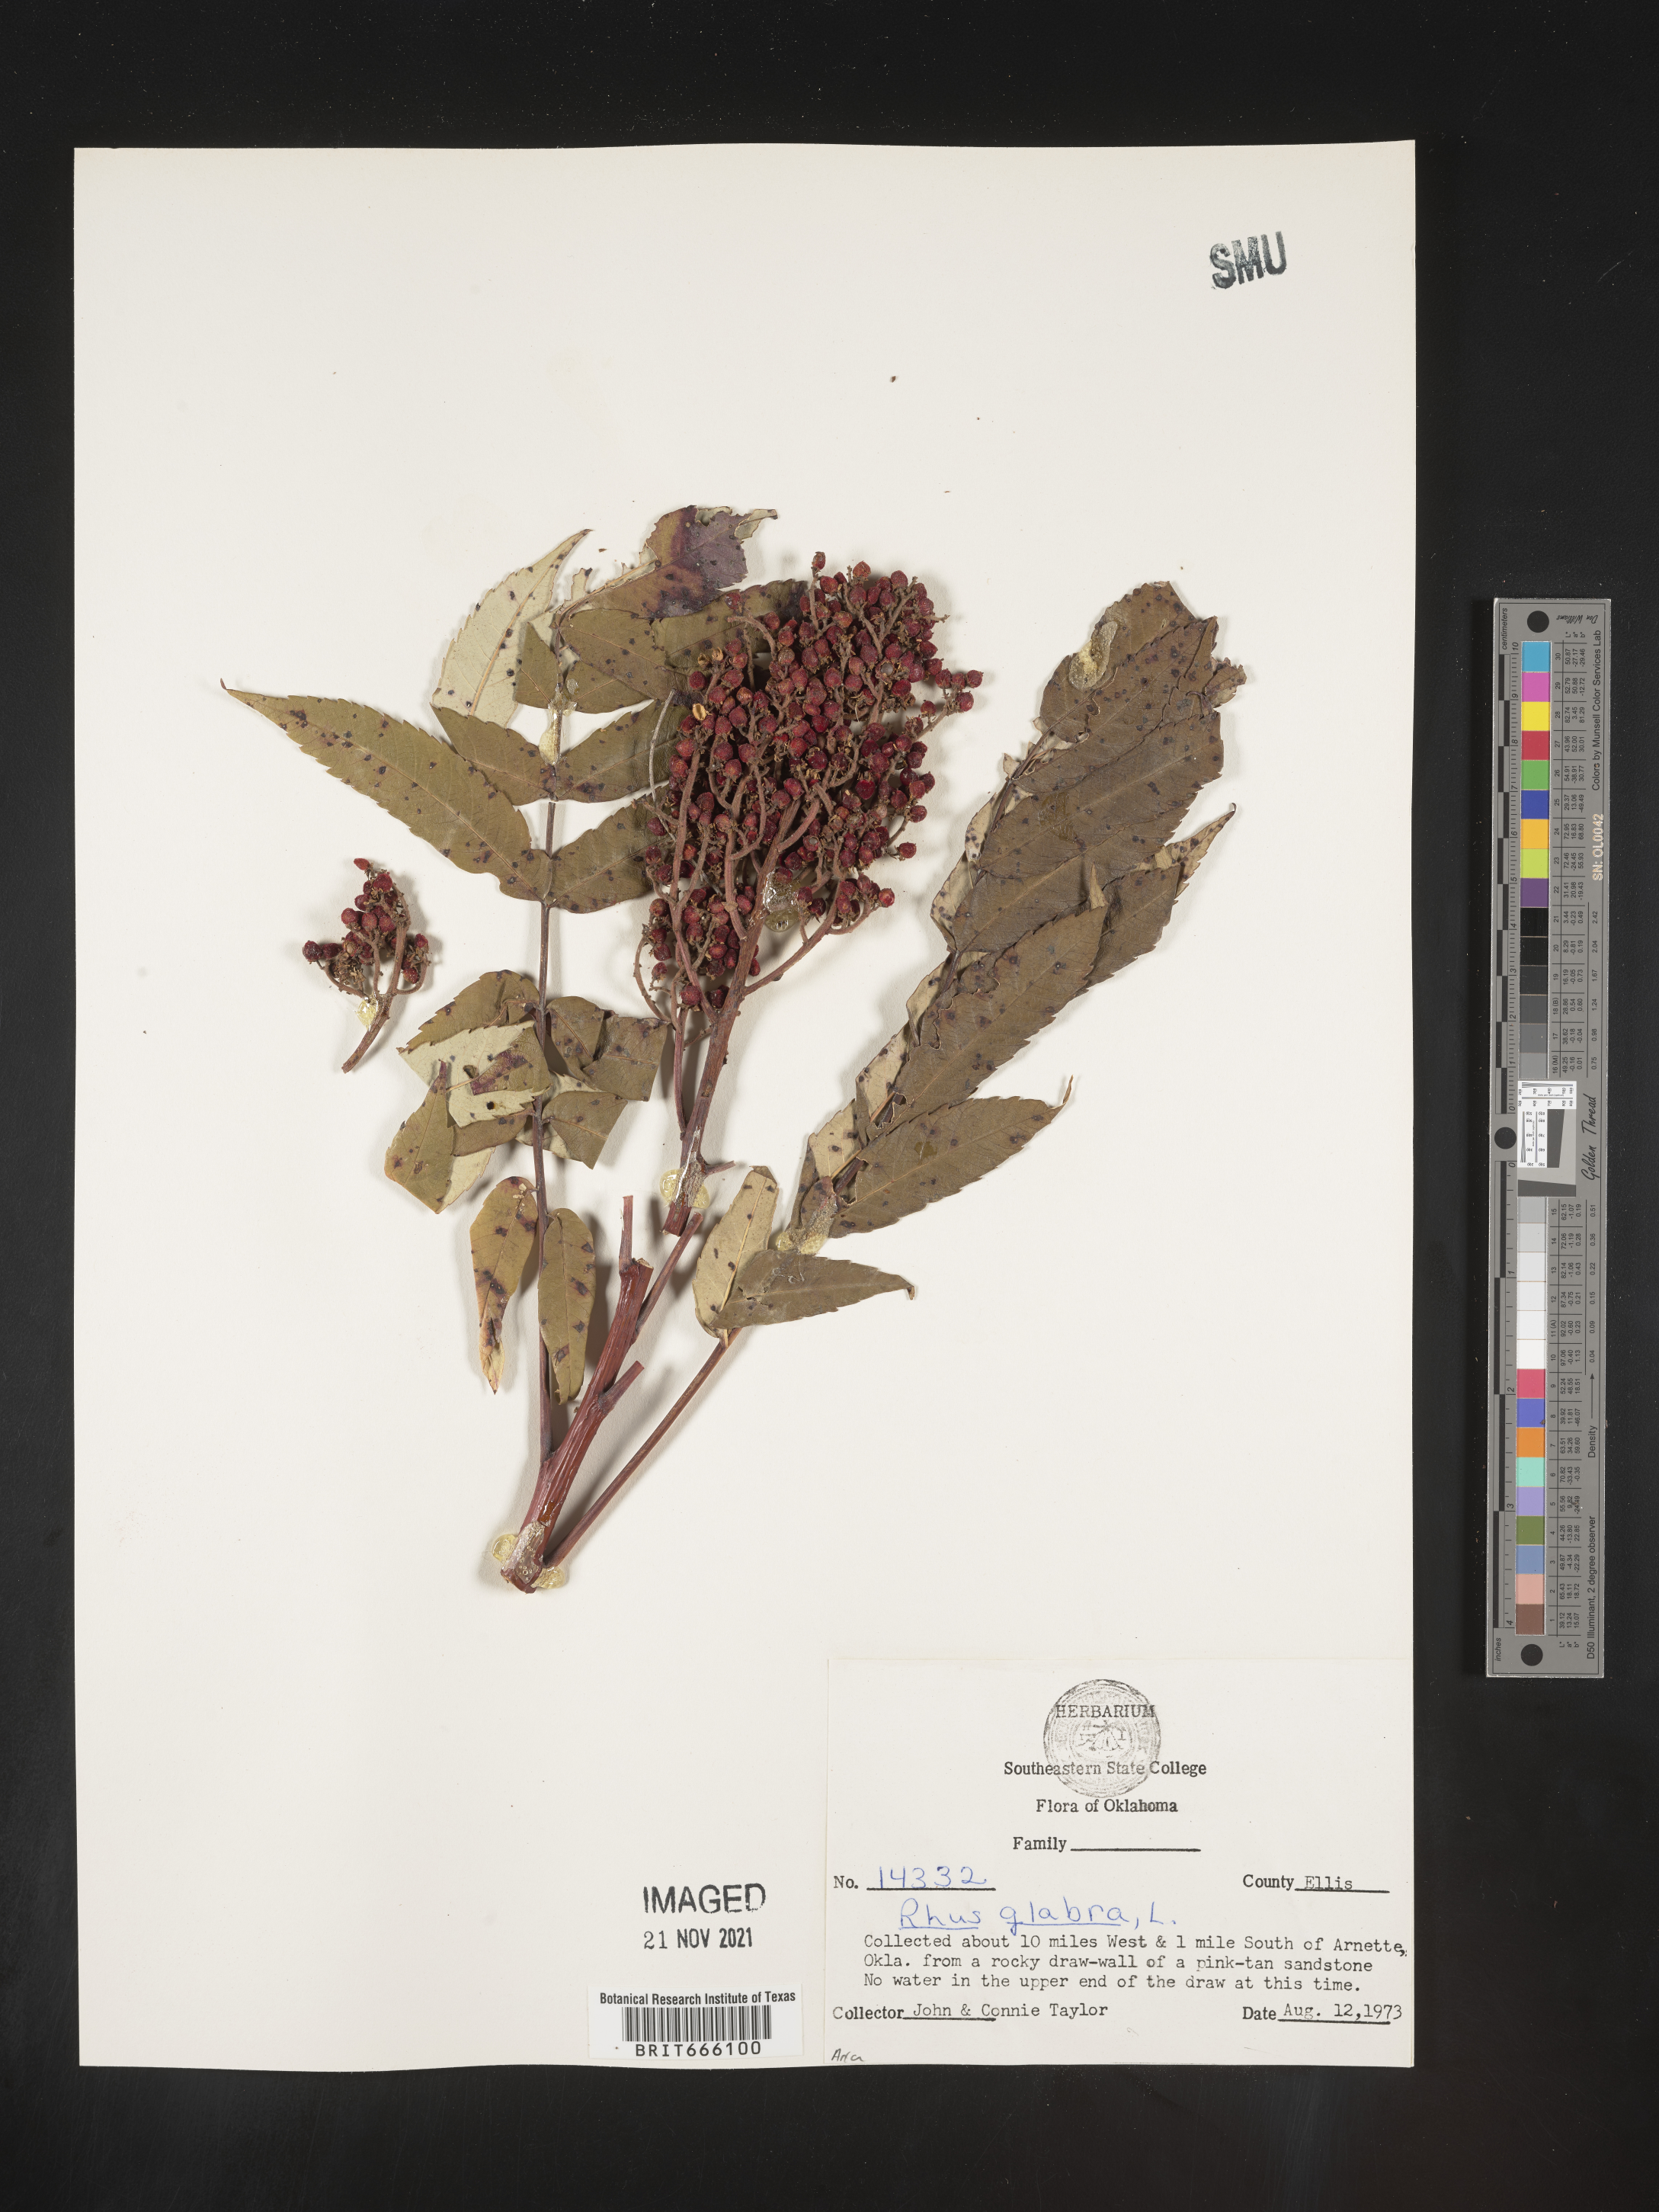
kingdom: Plantae
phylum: Tracheophyta
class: Magnoliopsida
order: Sapindales
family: Anacardiaceae
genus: Rhus
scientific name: Rhus glabra
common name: Scarlet sumac
